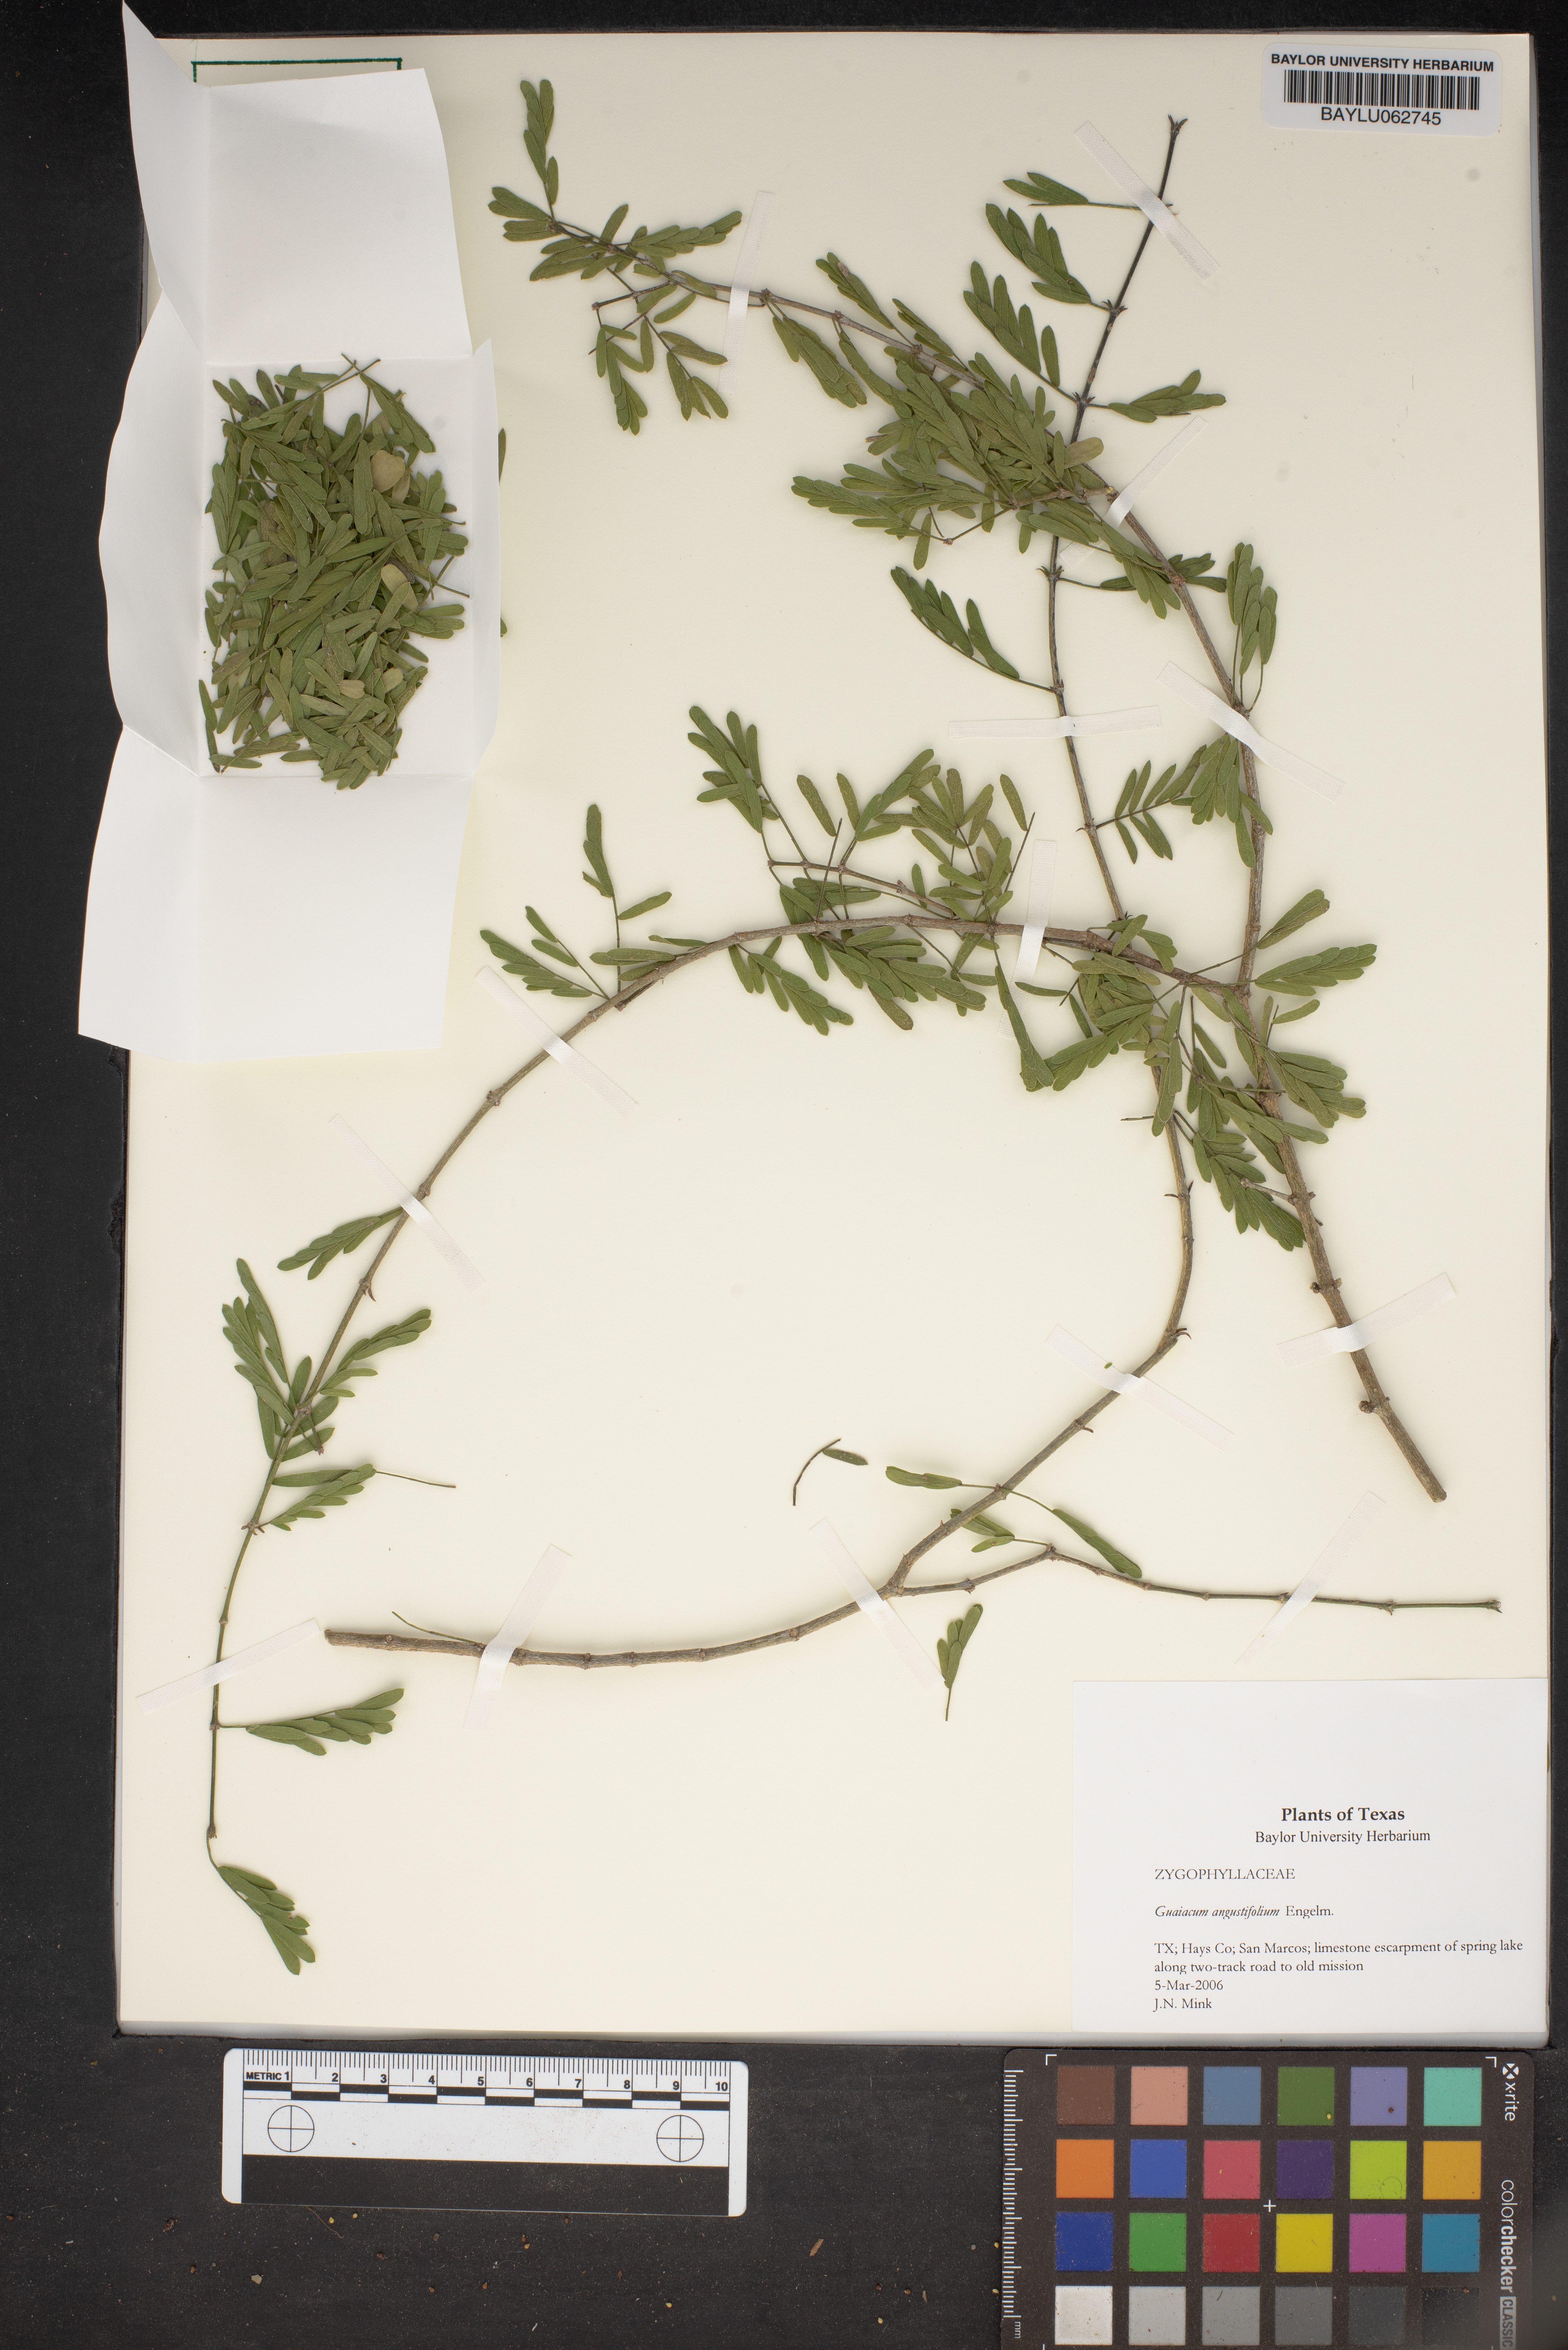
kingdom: Plantae
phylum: Tracheophyta
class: Magnoliopsida
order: Zygophyllales
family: Zygophyllaceae
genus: Porlieria
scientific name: Porlieria angustifolia
